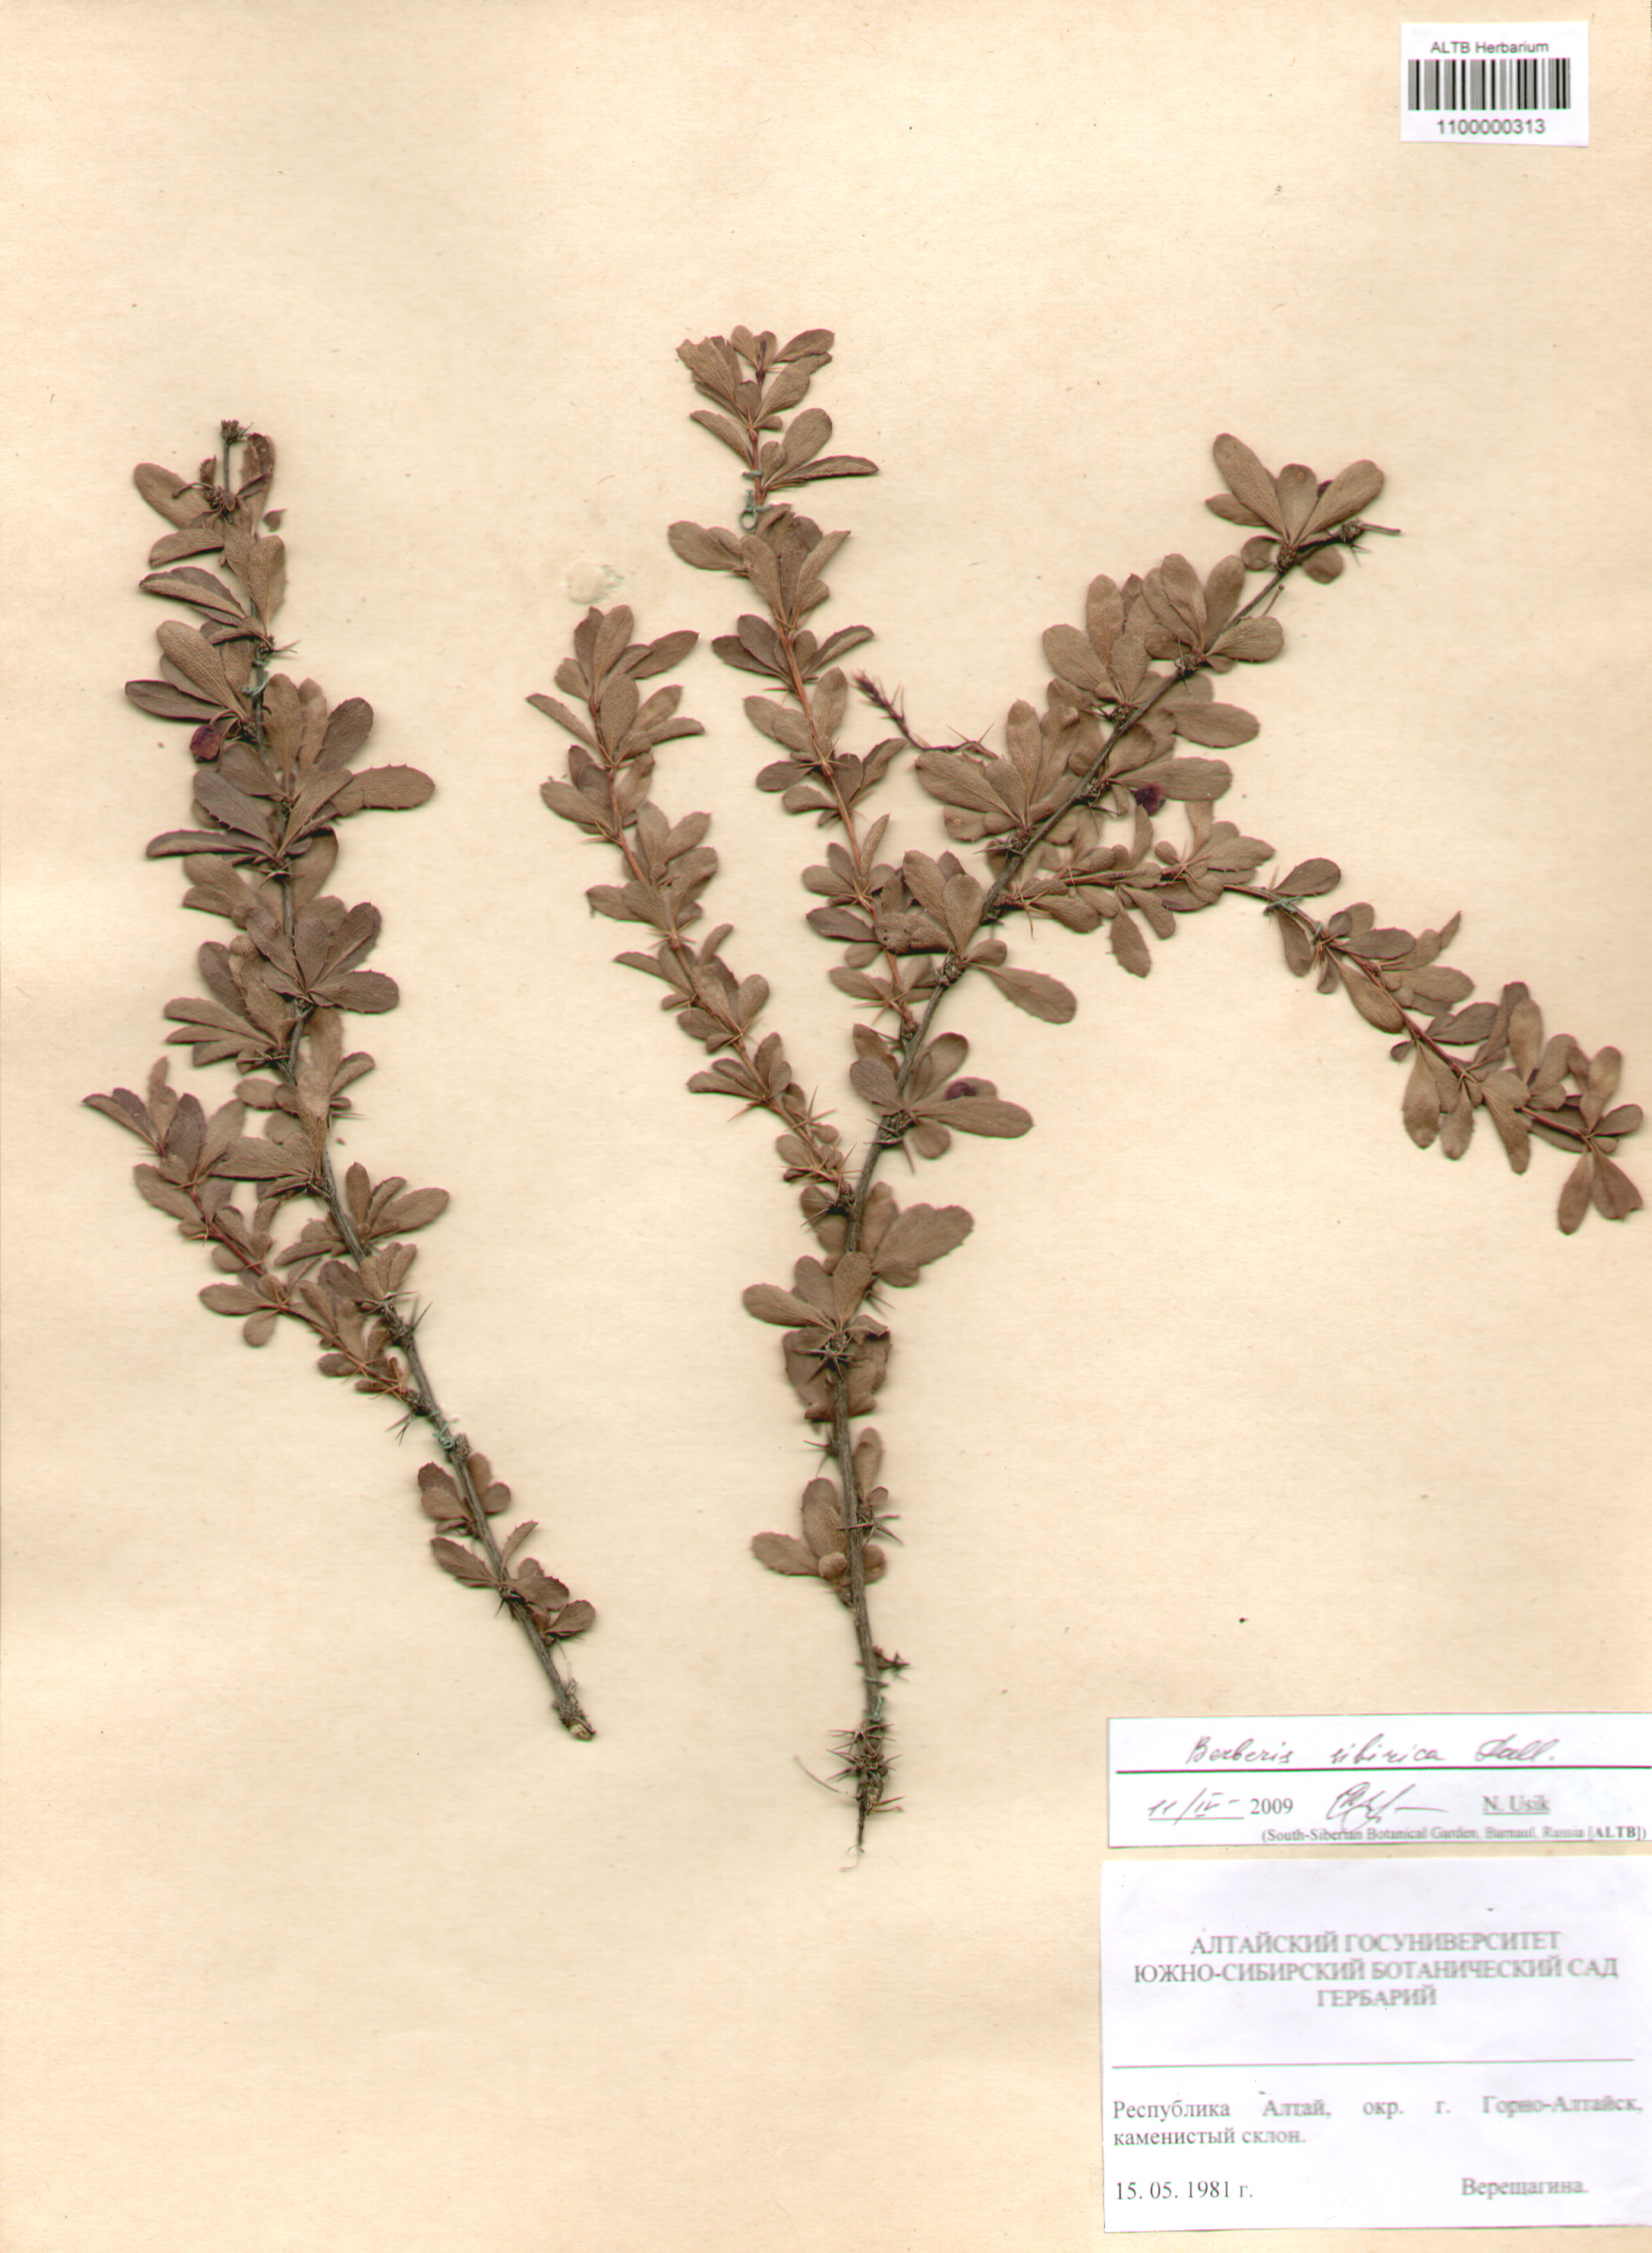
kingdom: Plantae
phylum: Tracheophyta
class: Magnoliopsida
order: Ranunculales
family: Berberidaceae
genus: Berberis
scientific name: Berberis sibirica
